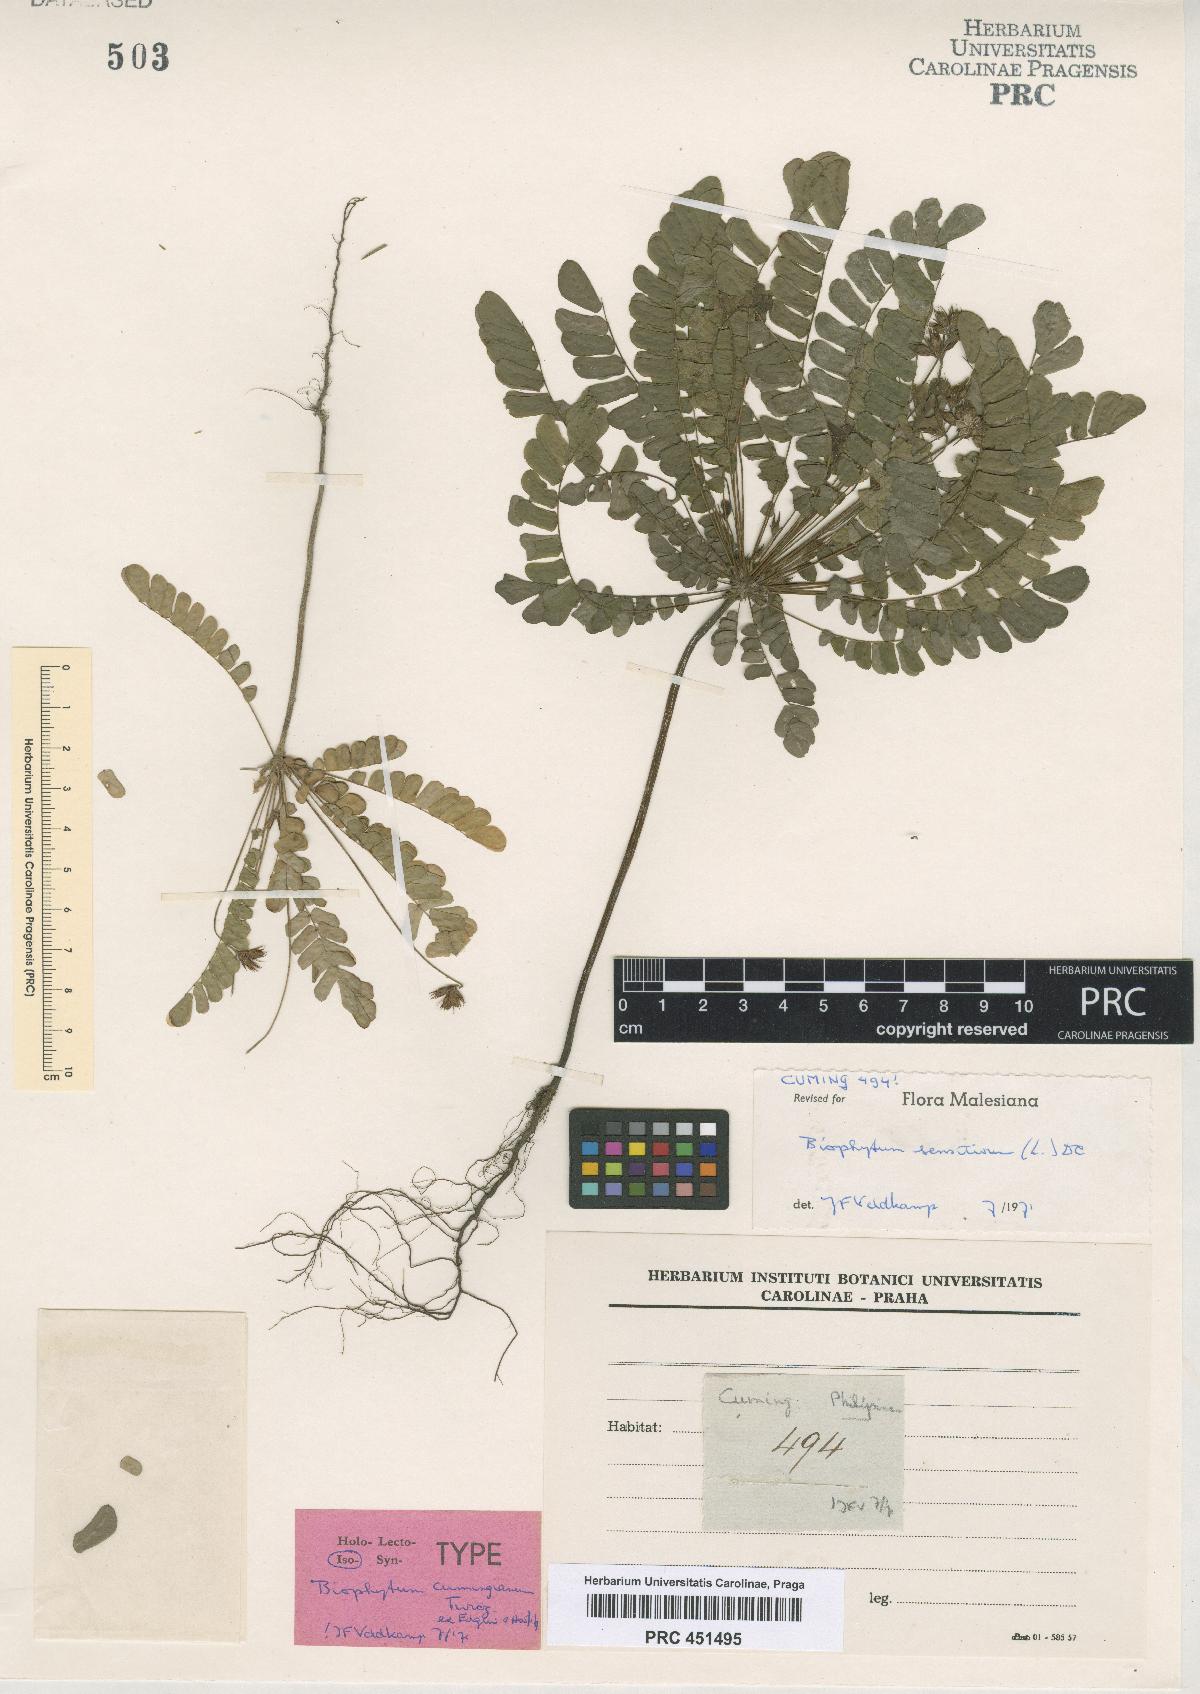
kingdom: Plantae
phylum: Tracheophyta
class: Magnoliopsida
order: Oxalidales
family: Oxalidaceae
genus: Biophytum
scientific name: Biophytum sensitivum
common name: Lifeplant
